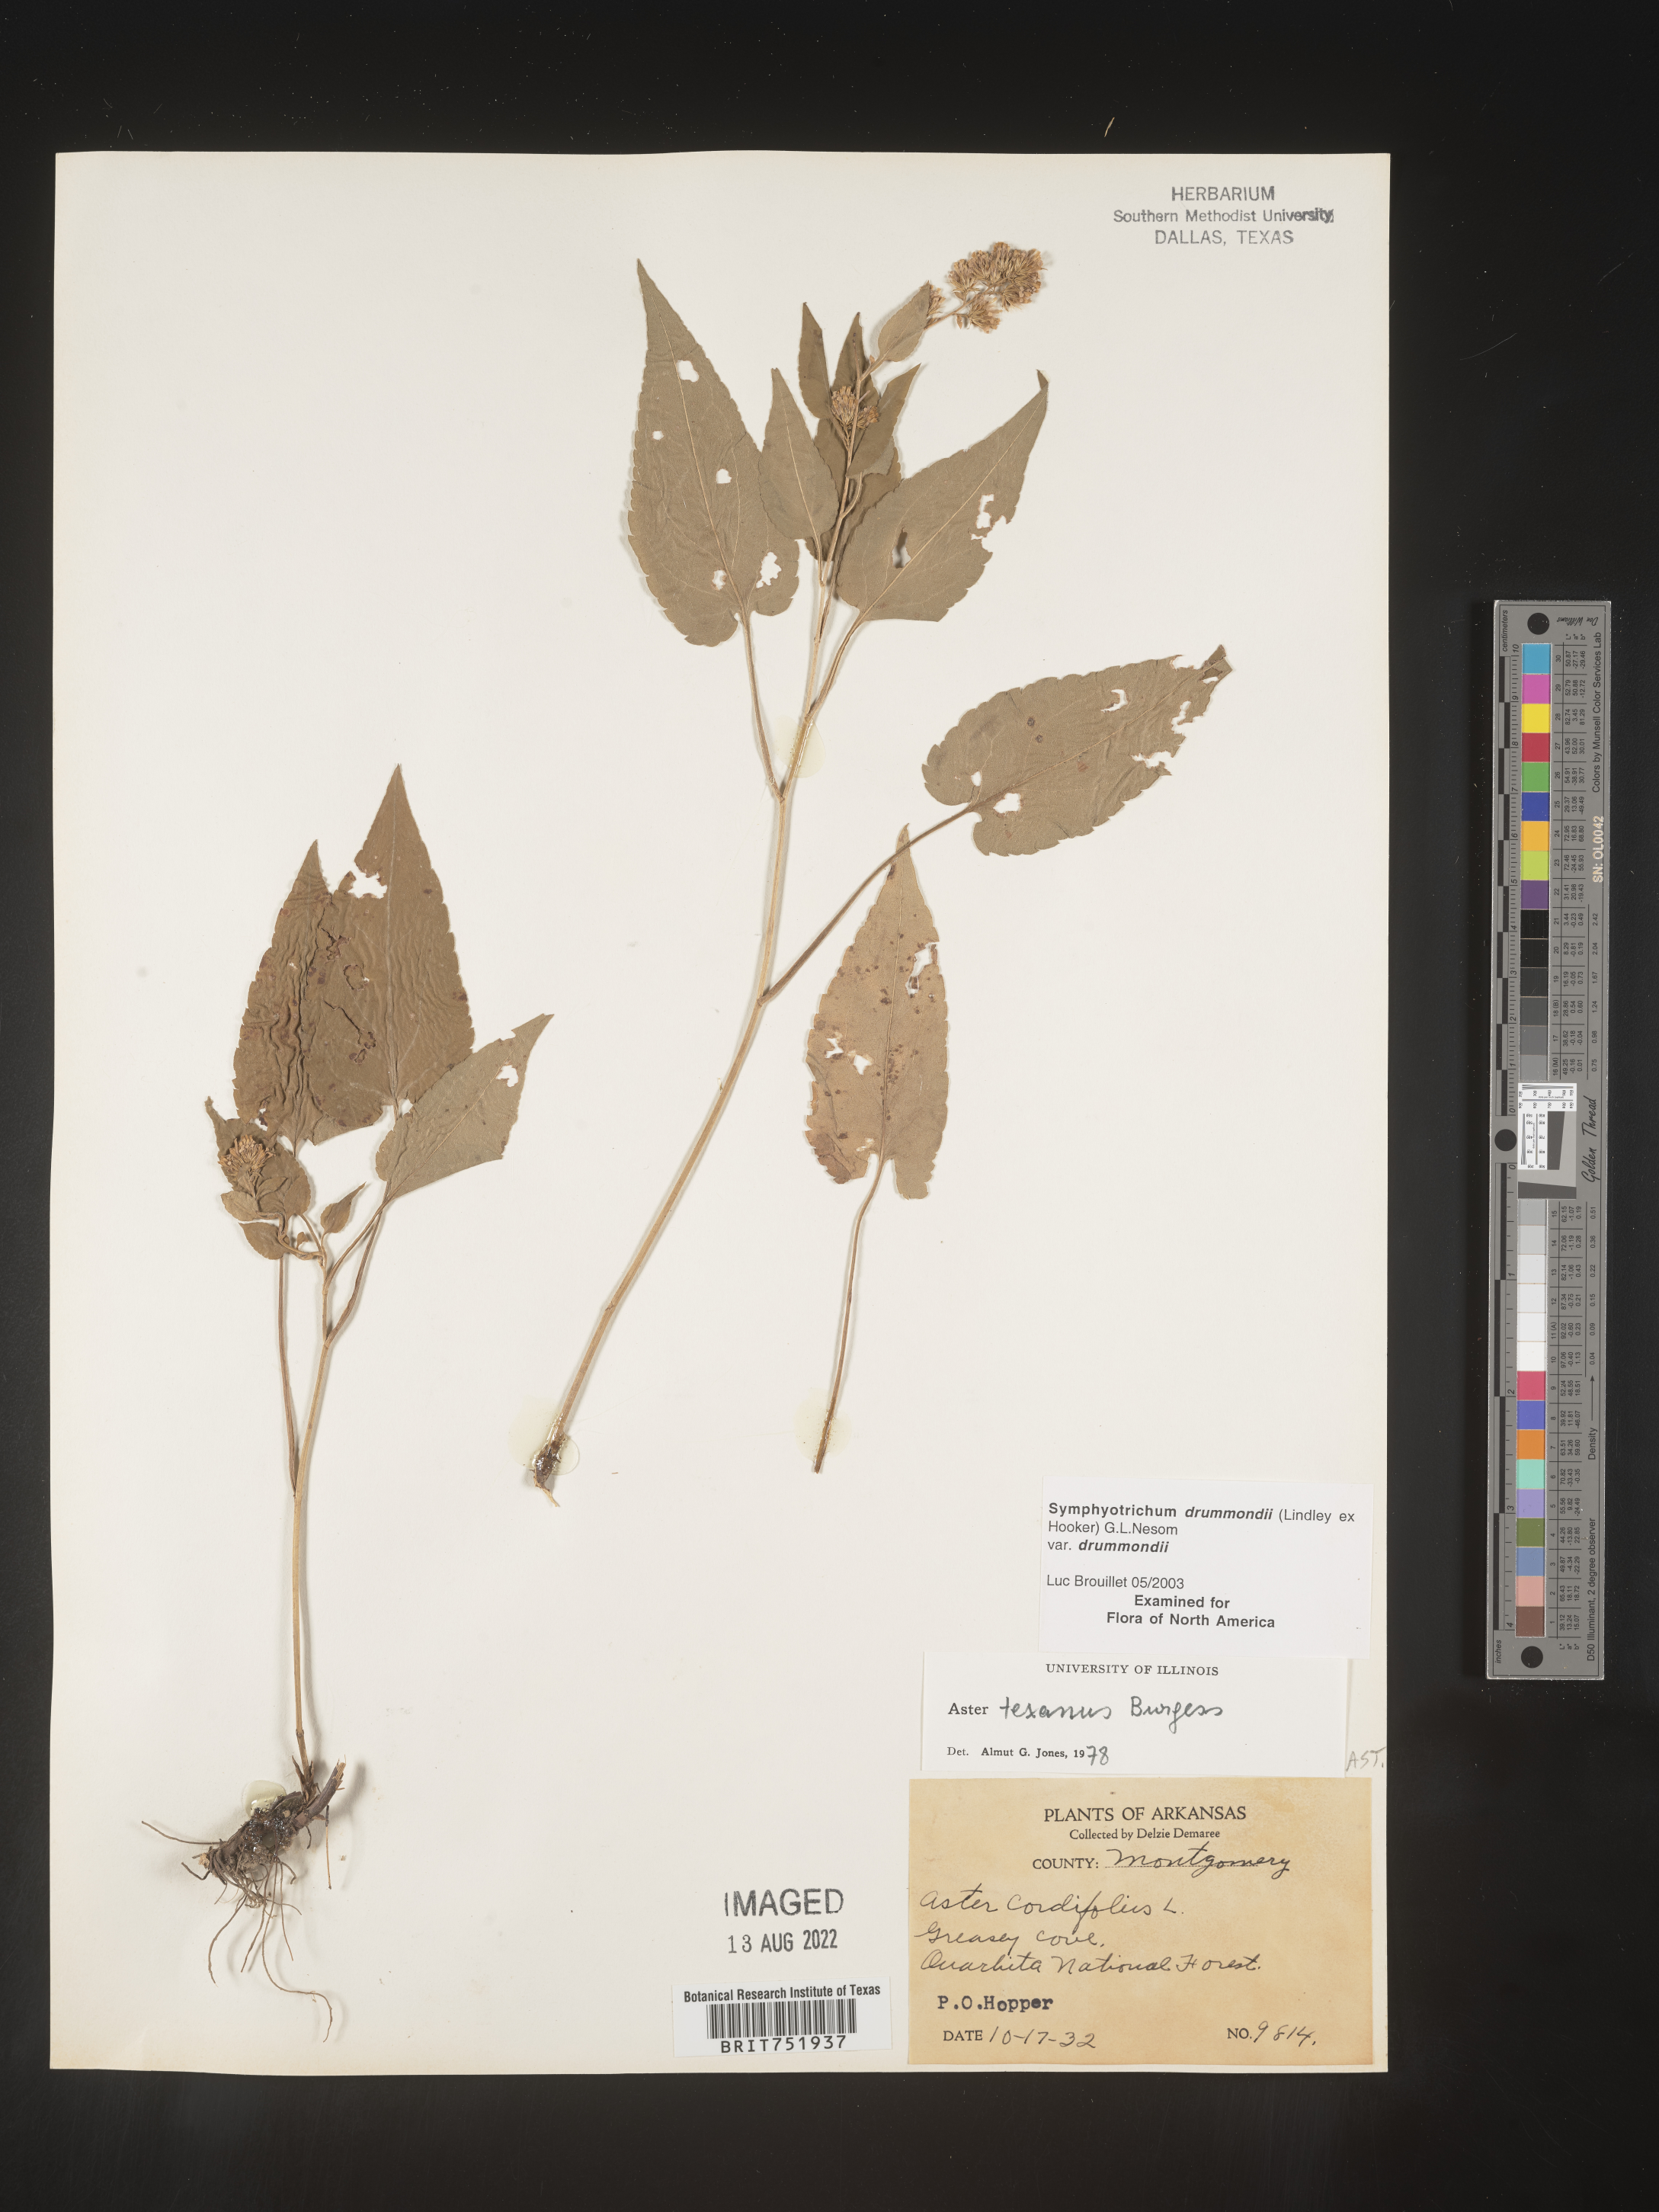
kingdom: Plantae
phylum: Tracheophyta
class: Magnoliopsida
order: Asterales
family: Asteraceae
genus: Symphyotrichum
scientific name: Symphyotrichum drummondii
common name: Drummond's aster
